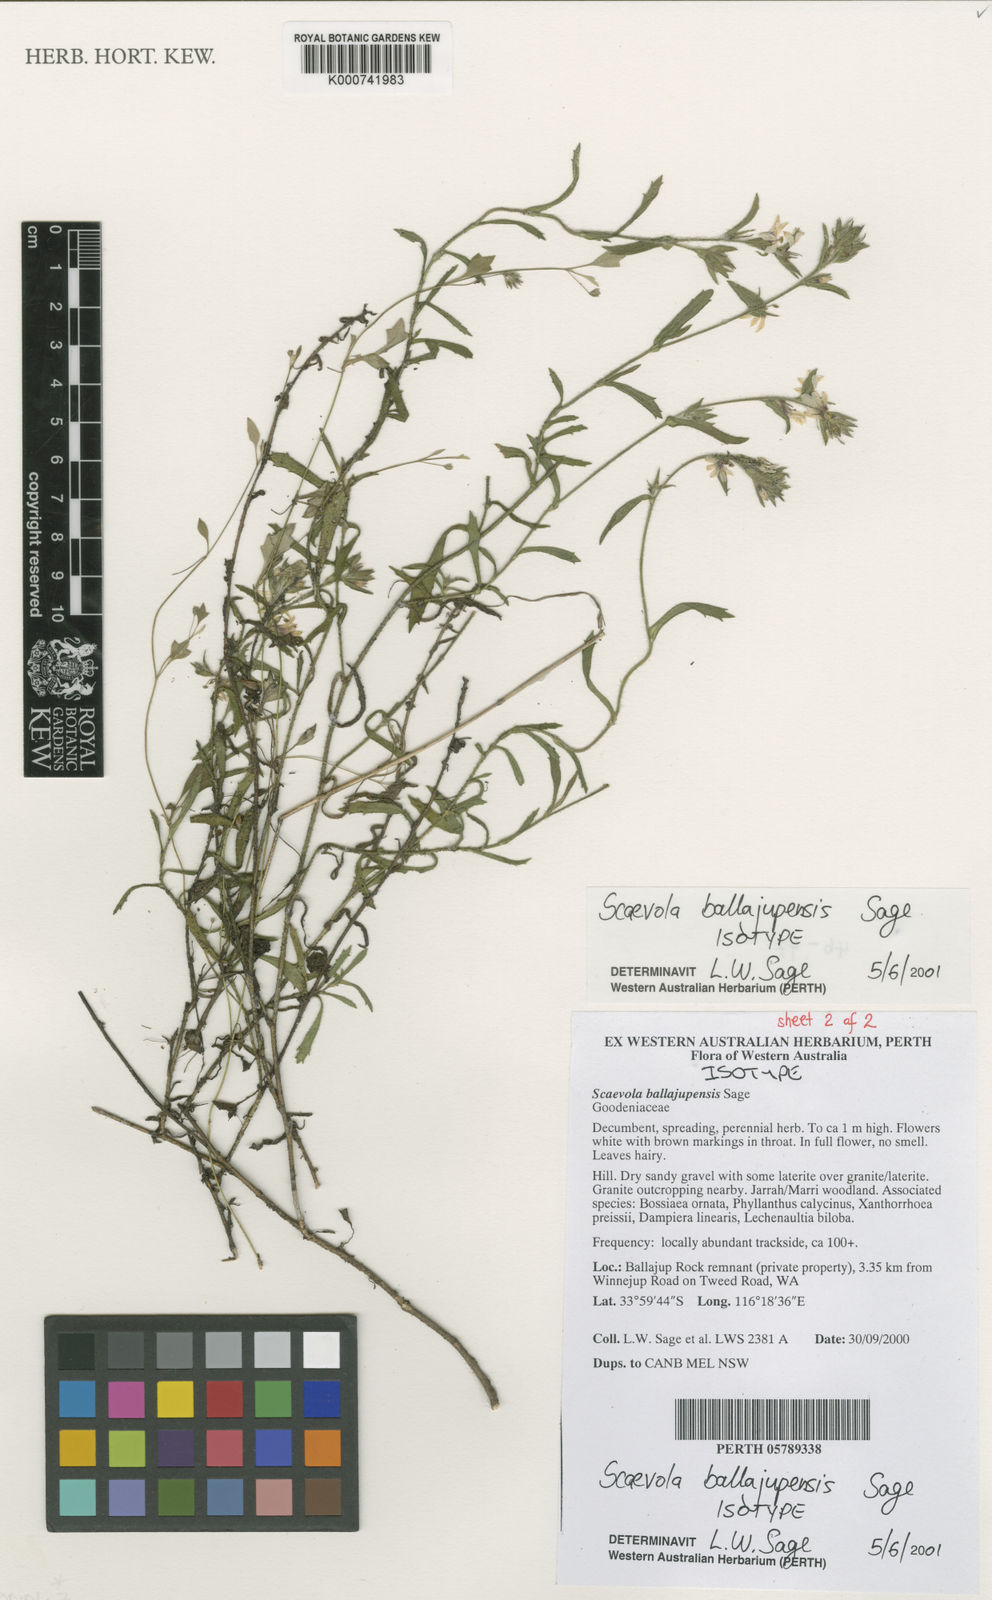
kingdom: Plantae
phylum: Tracheophyta
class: Magnoliopsida
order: Asterales
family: Goodeniaceae
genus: Scaevola
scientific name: Scaevola ballajupensis
